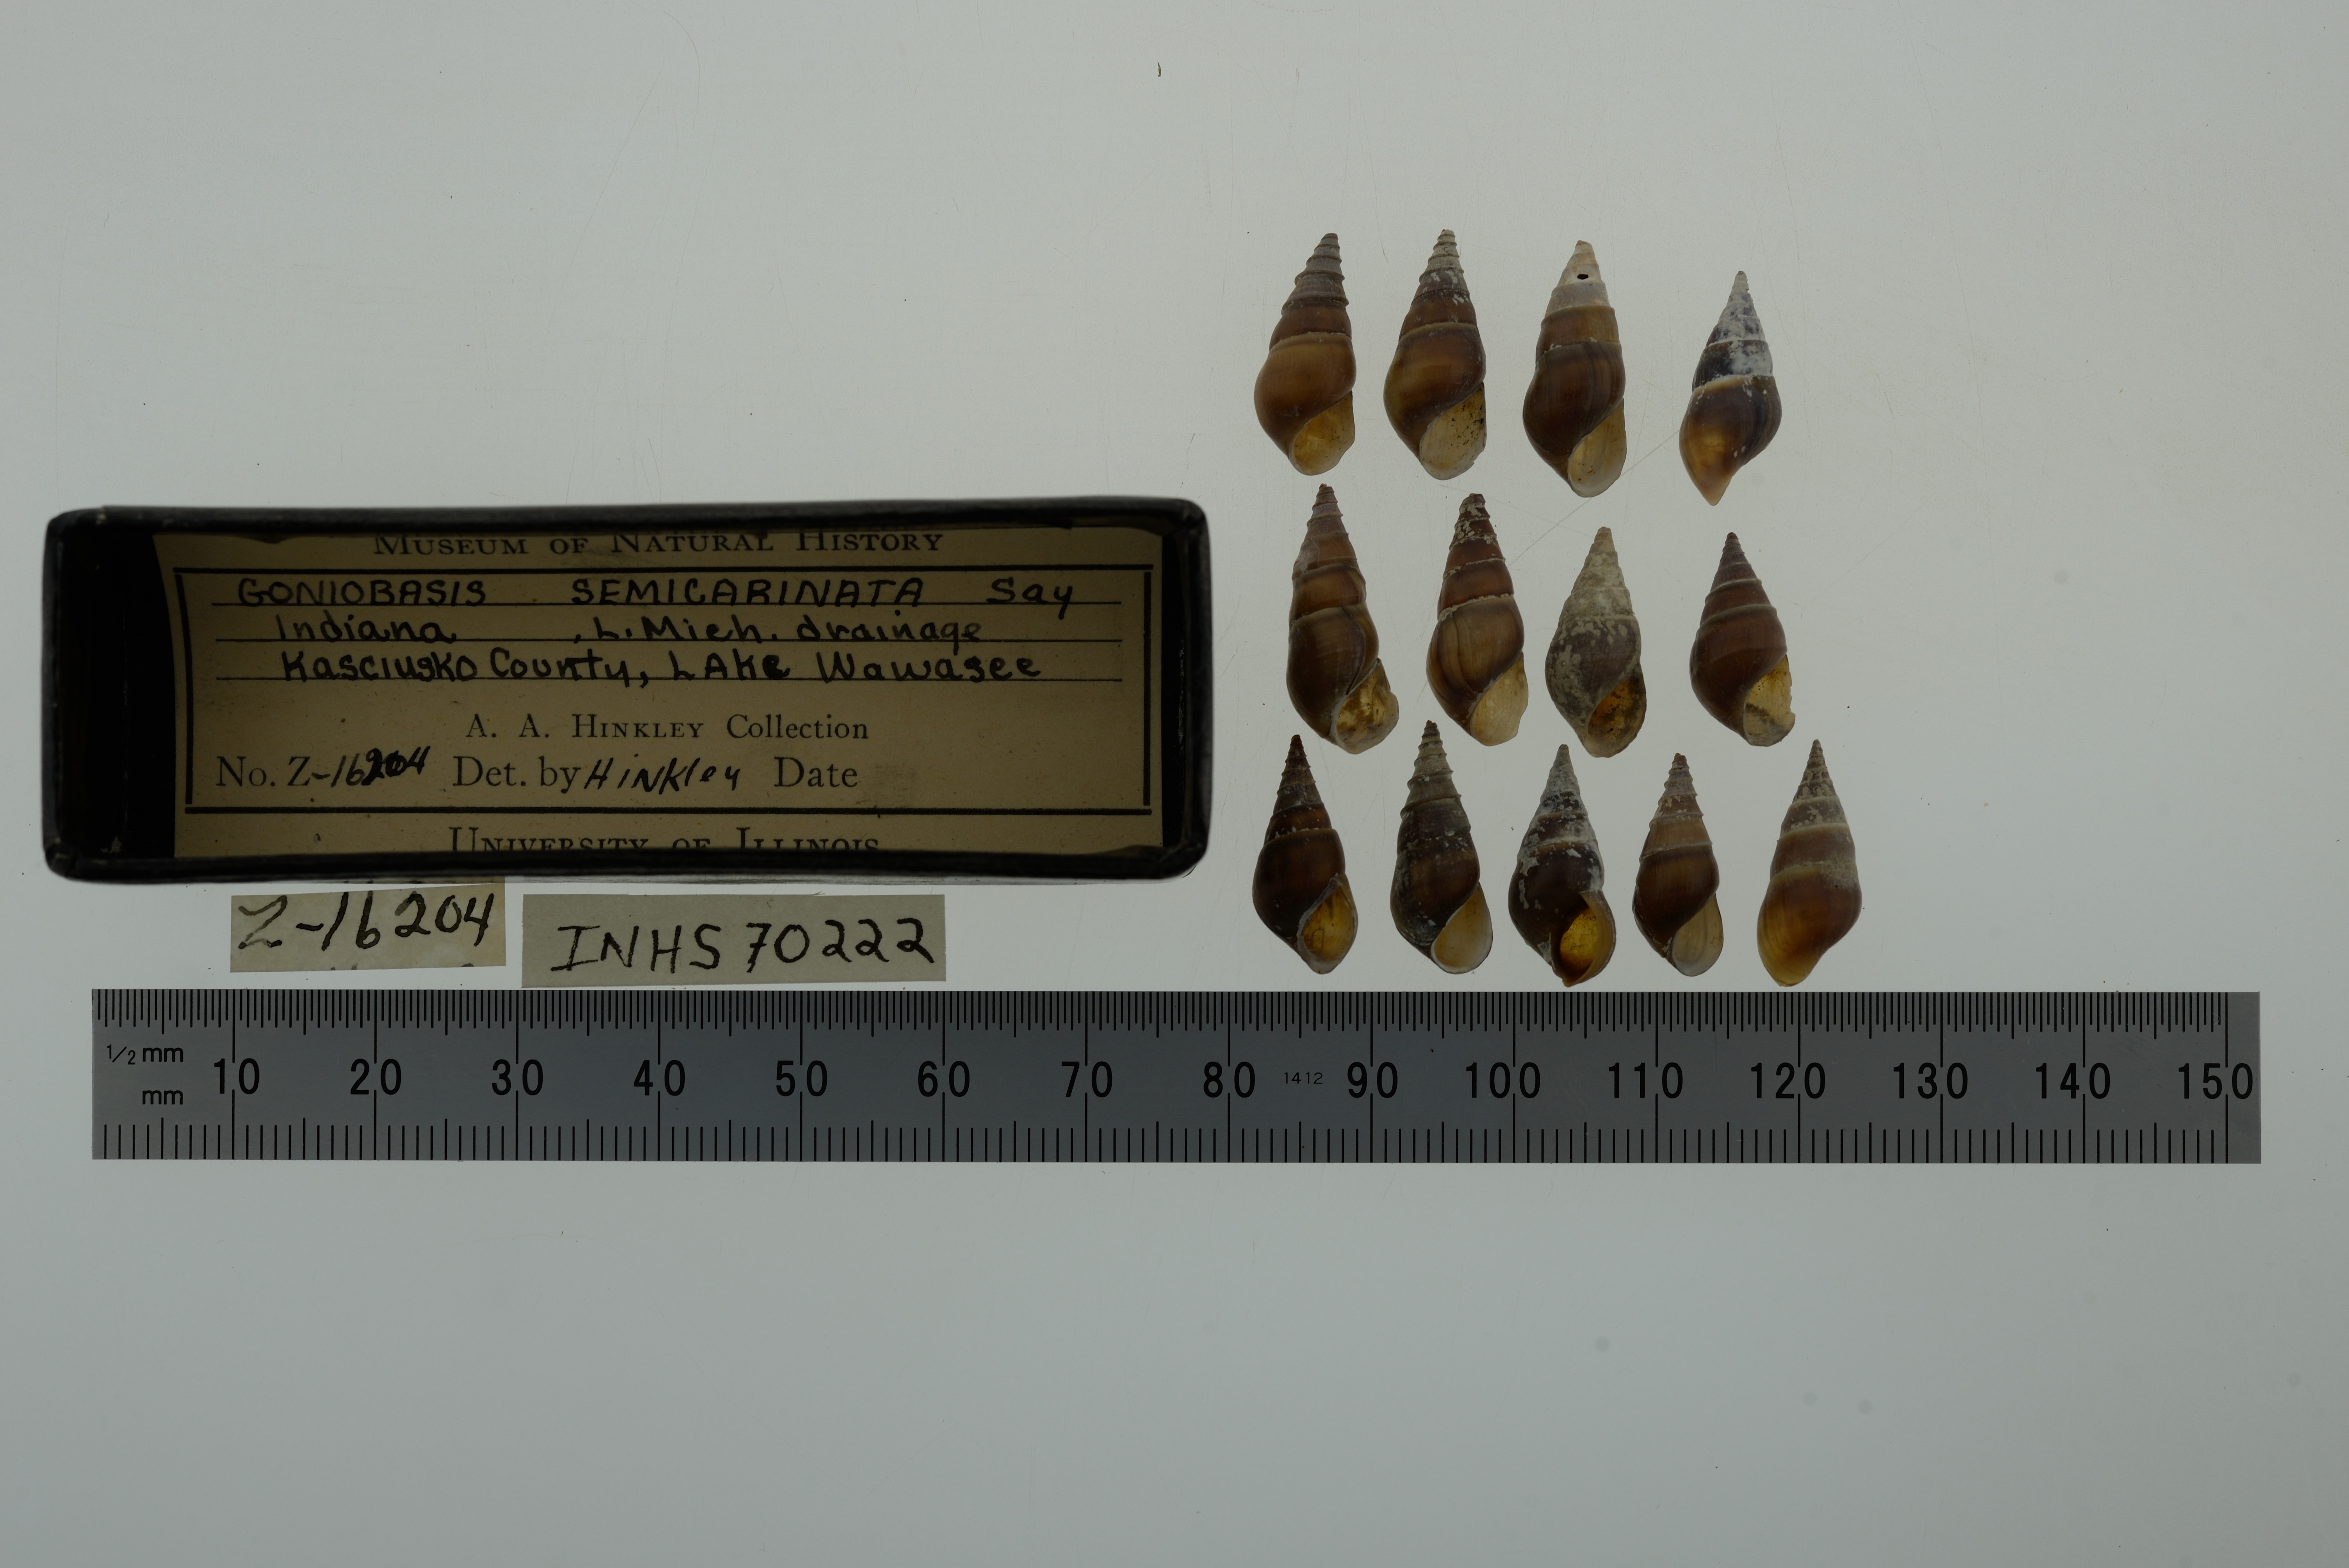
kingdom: Animalia
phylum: Mollusca
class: Gastropoda
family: Pleuroceridae
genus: Elimia
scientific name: Elimia semicarinata
